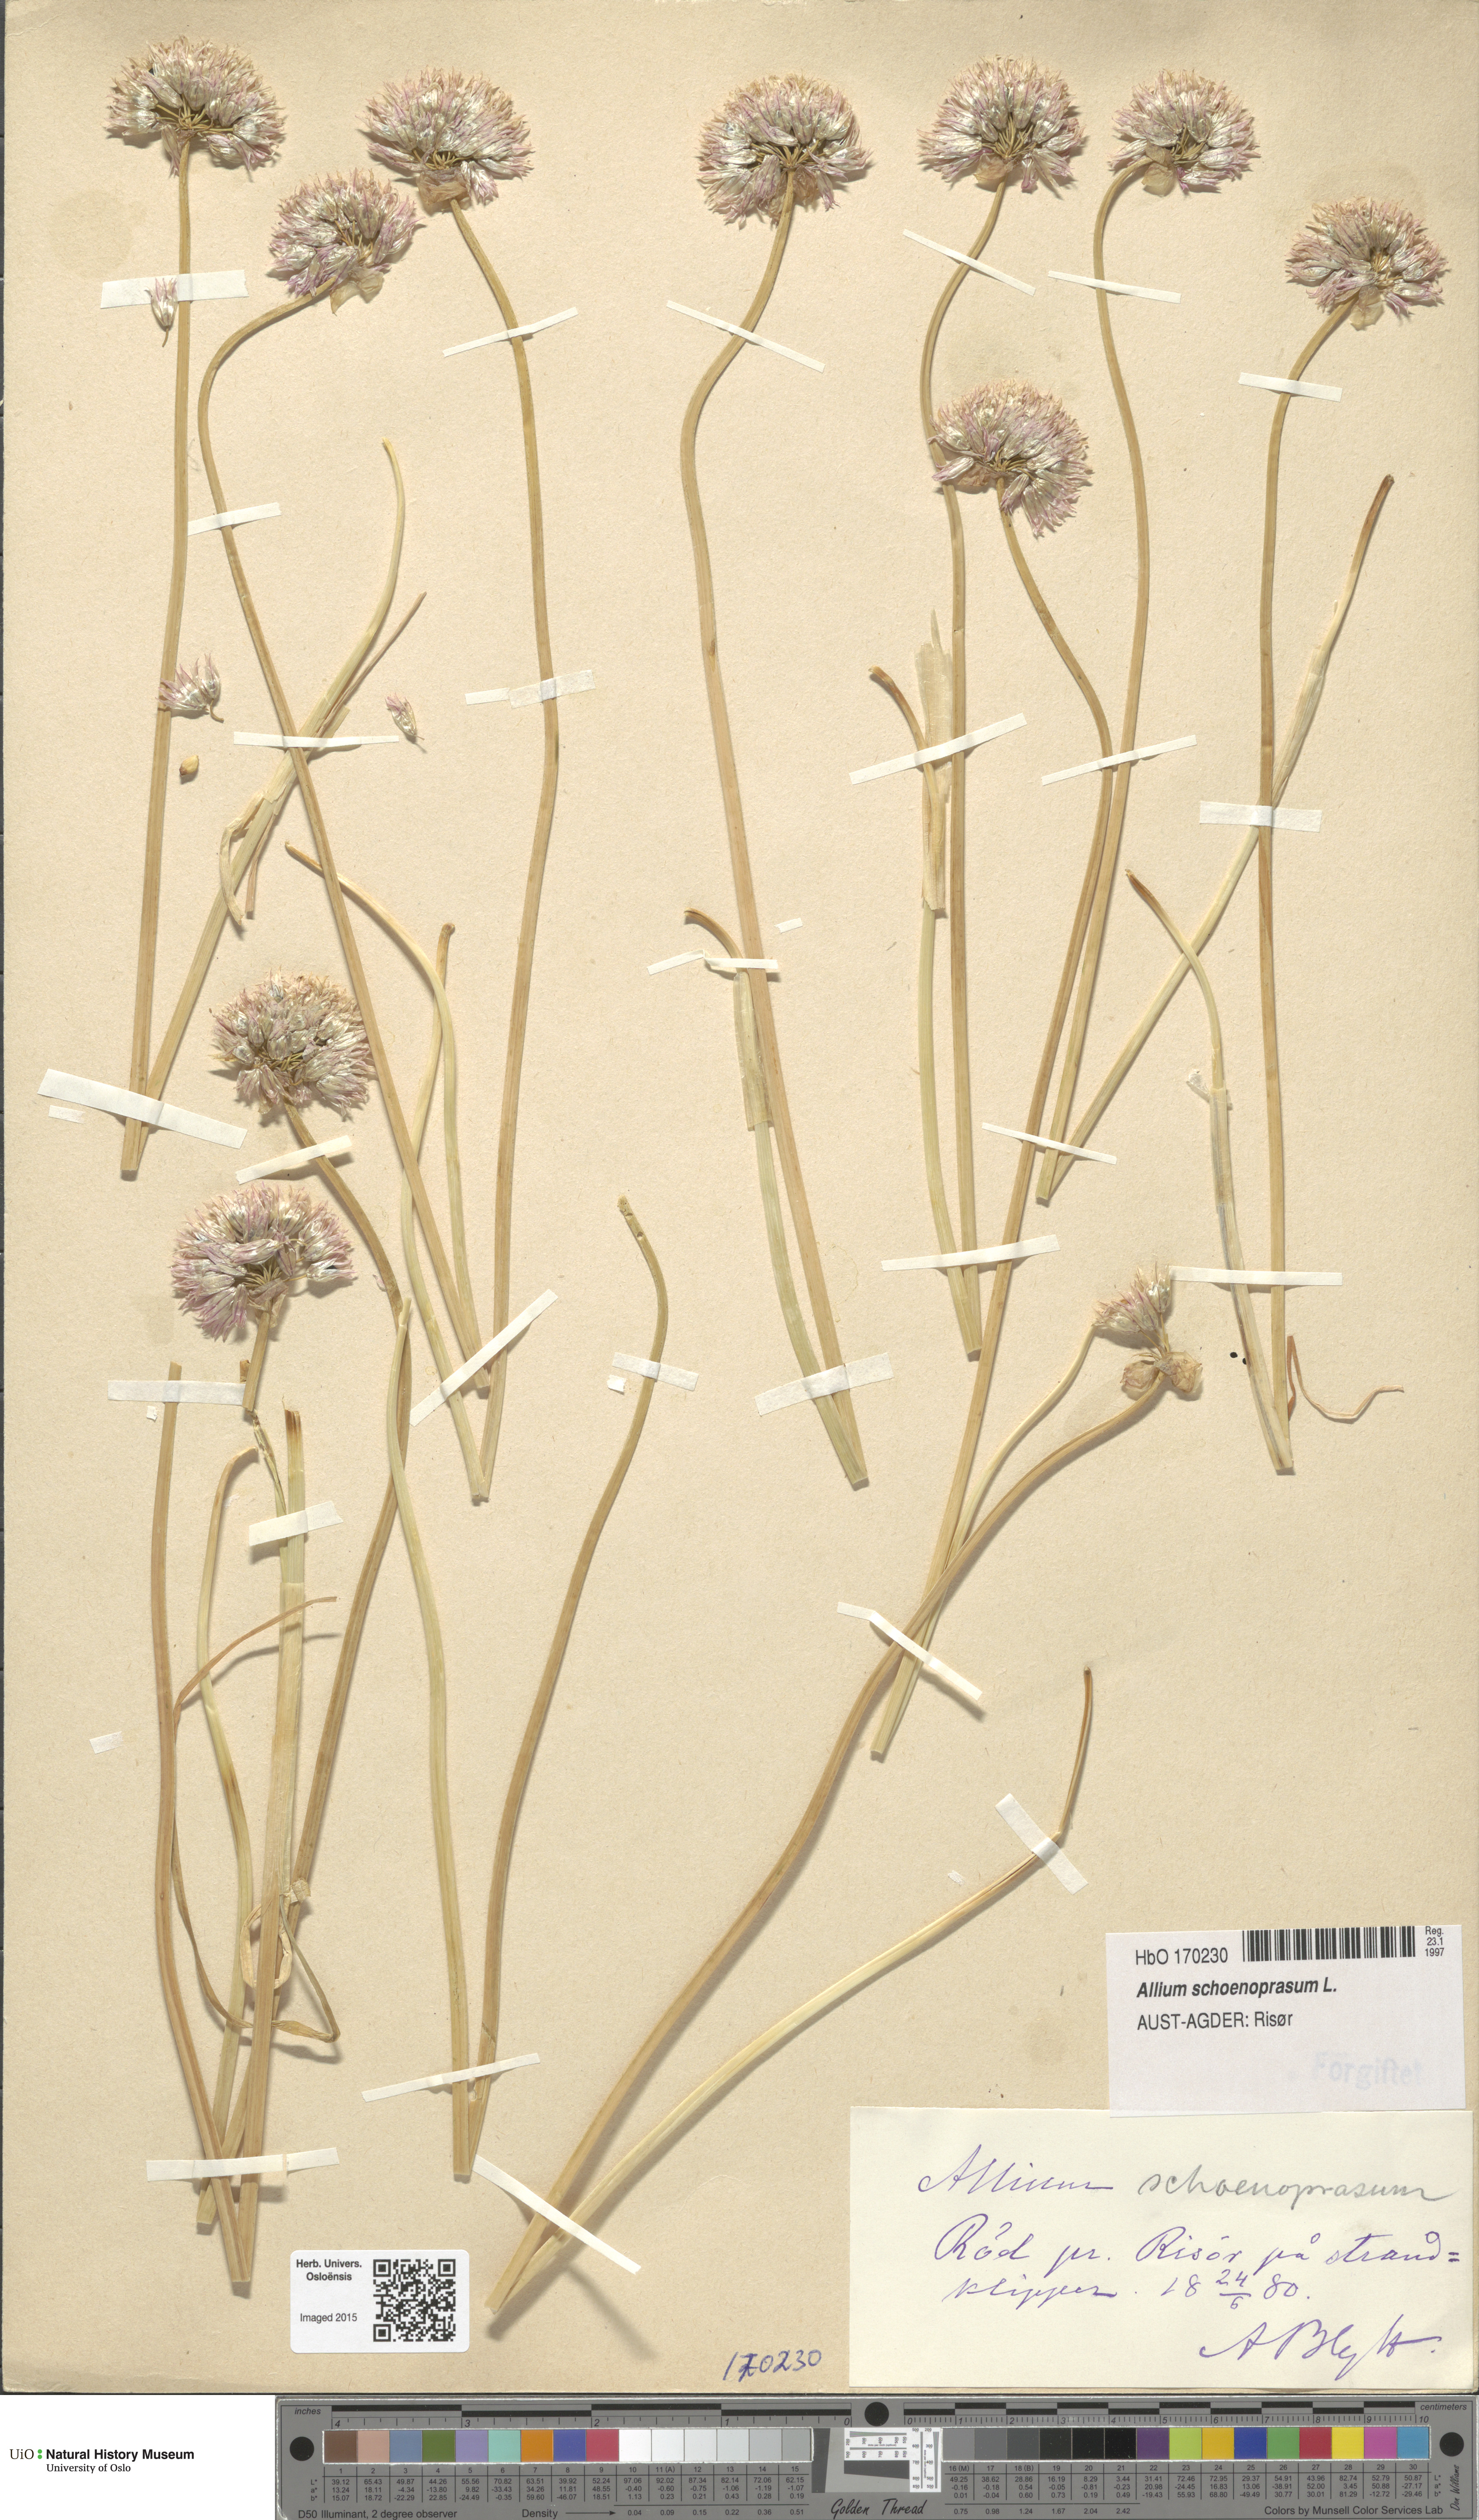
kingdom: Plantae
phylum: Tracheophyta
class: Liliopsida
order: Asparagales
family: Amaryllidaceae
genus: Allium
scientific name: Allium schoenoprasum
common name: Chives
